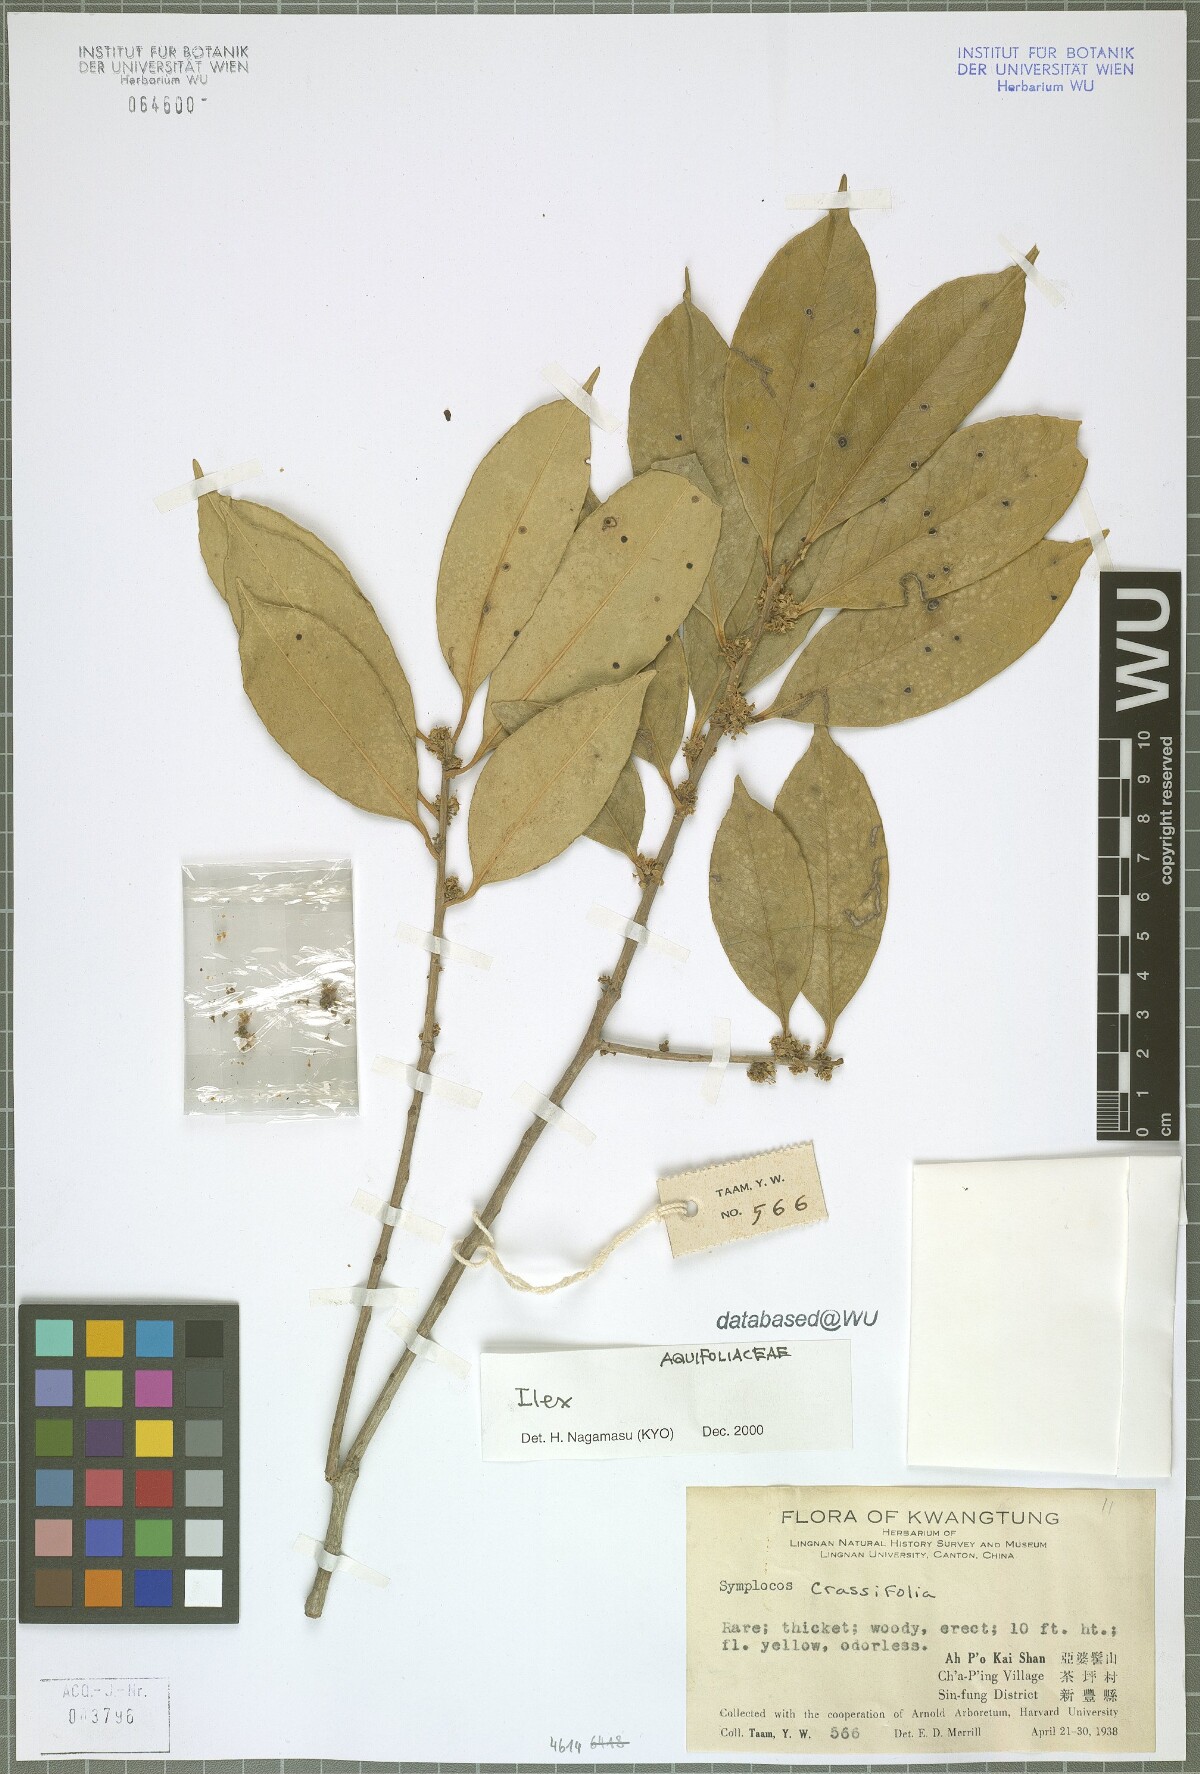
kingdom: Plantae
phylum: Tracheophyta
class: Magnoliopsida
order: Aquifoliales
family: Aquifoliaceae
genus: Ilex
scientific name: Ilex
